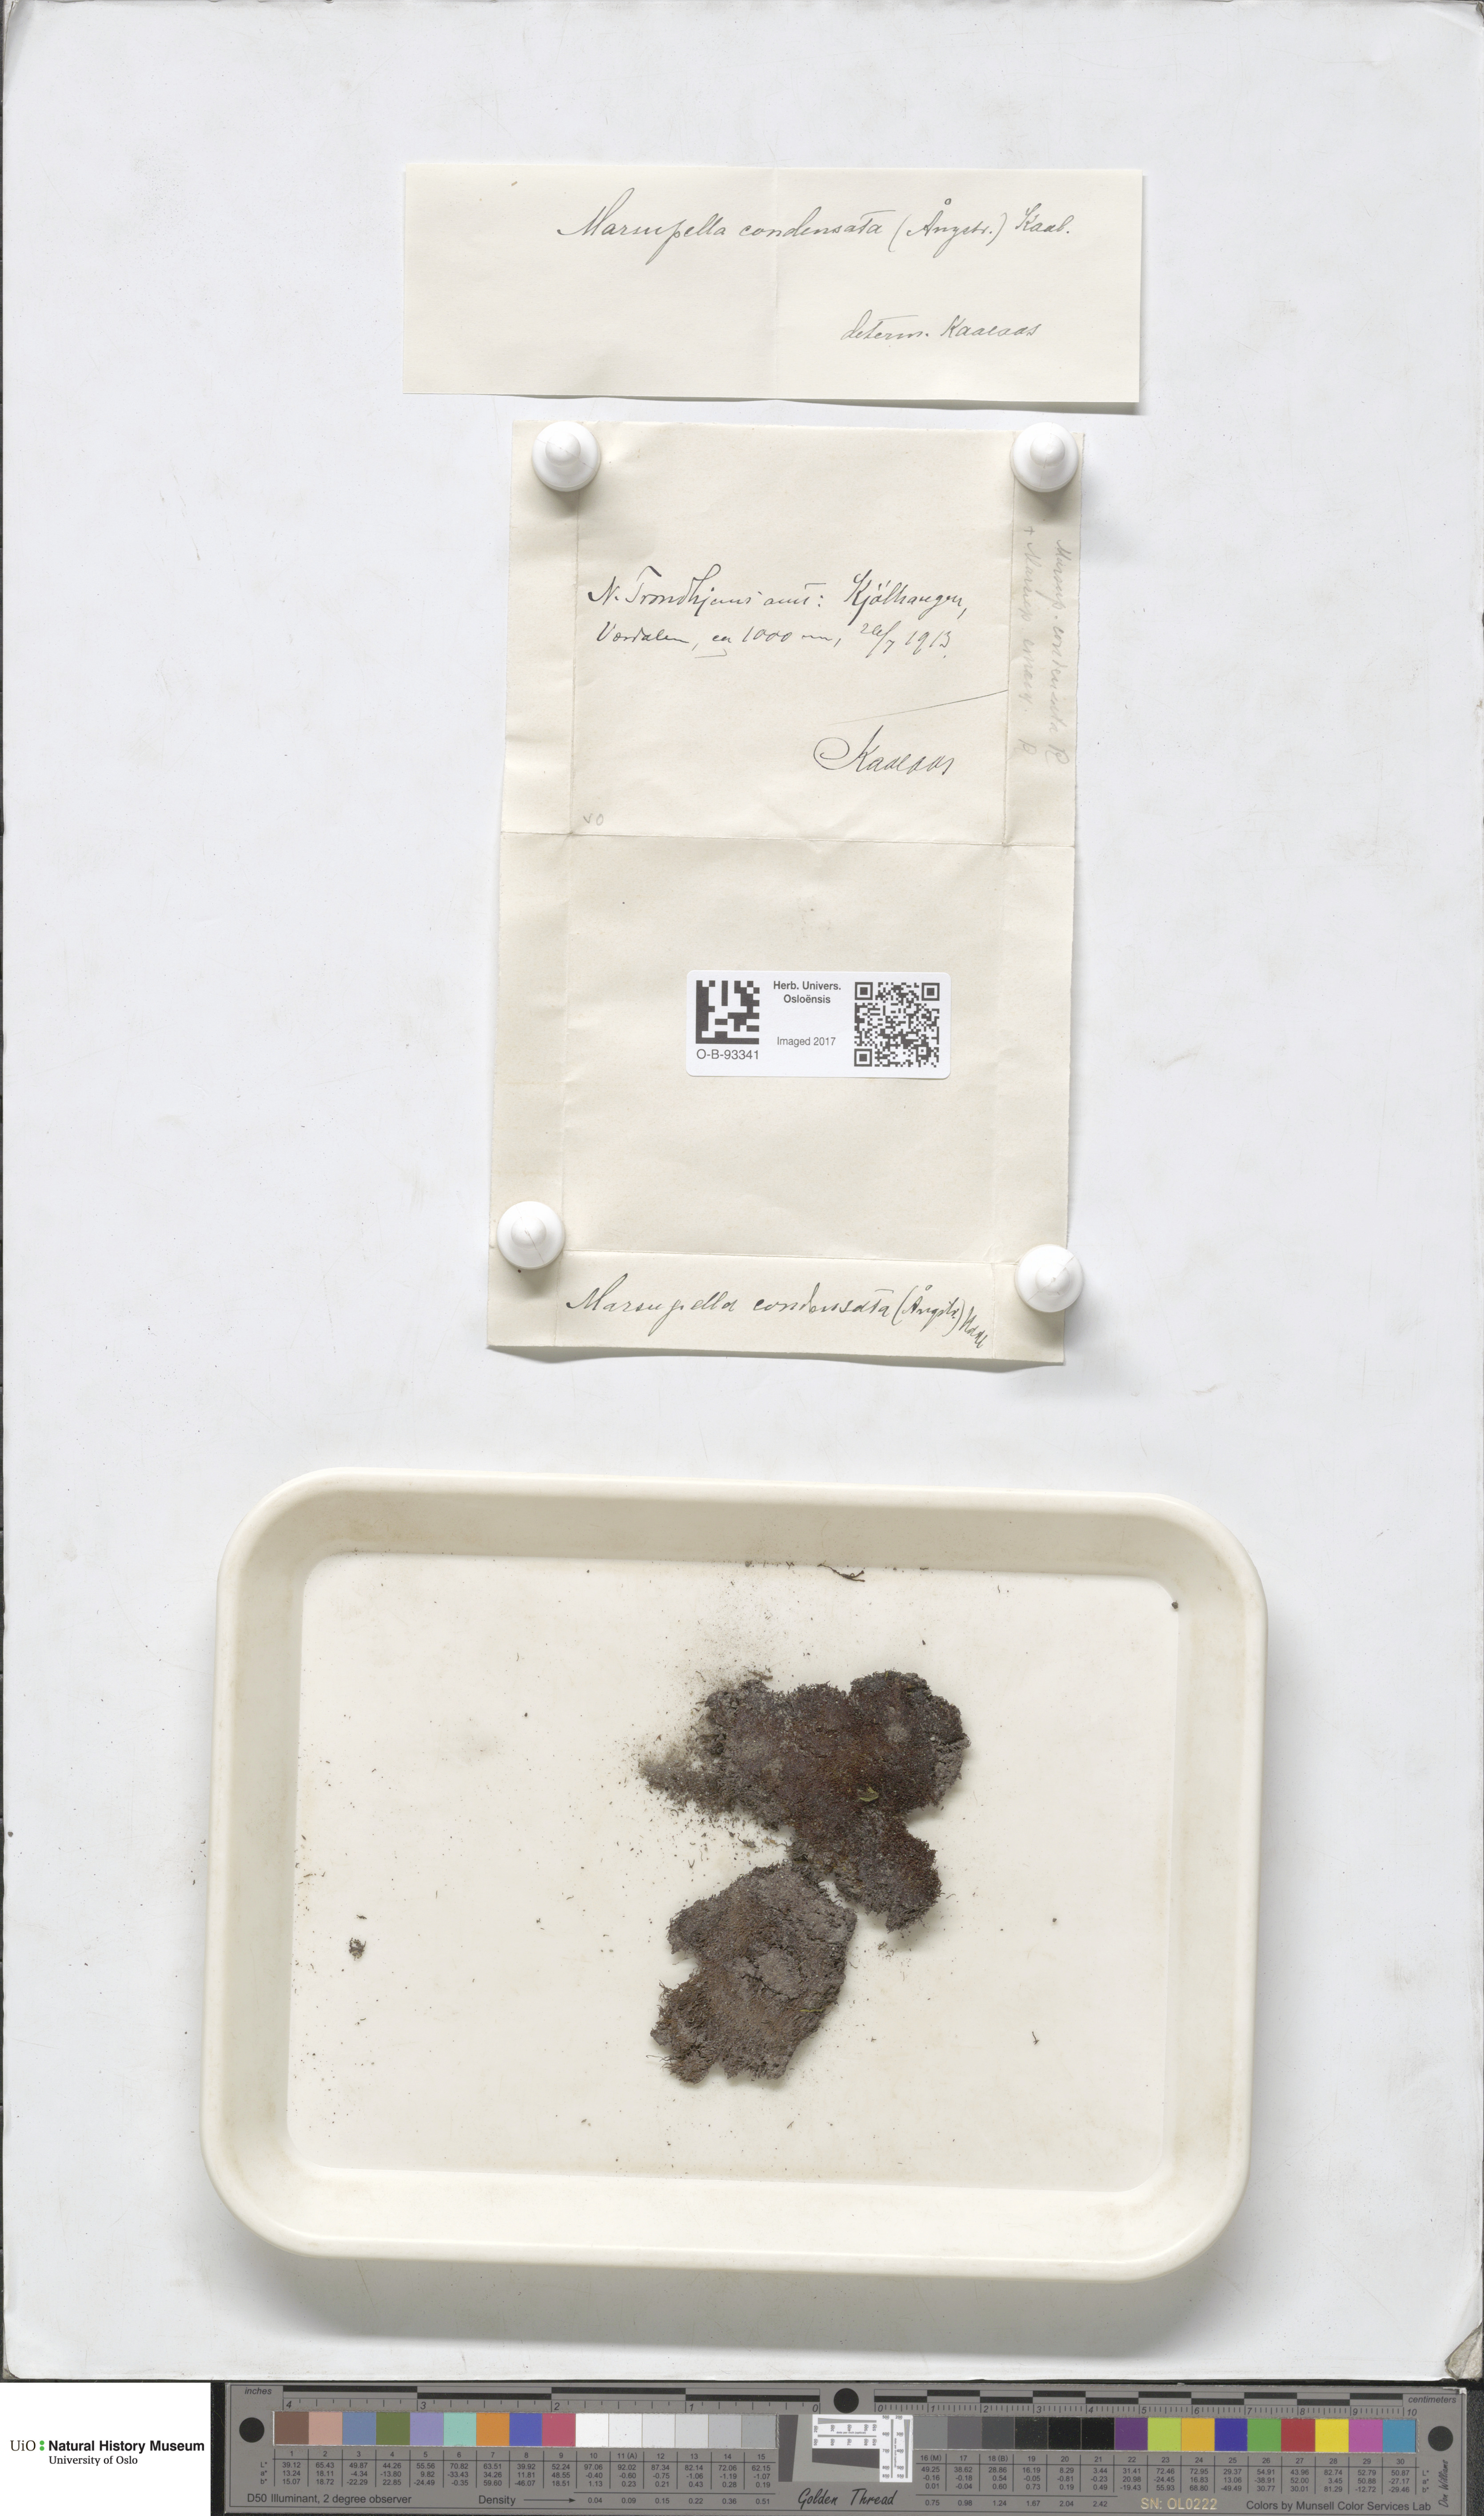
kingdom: Plantae
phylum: Marchantiophyta
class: Jungermanniopsida
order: Jungermanniales
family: Gymnomitriaceae
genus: Gymnomitrion
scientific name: Gymnomitrion brevissimum
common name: Snow rustwort
